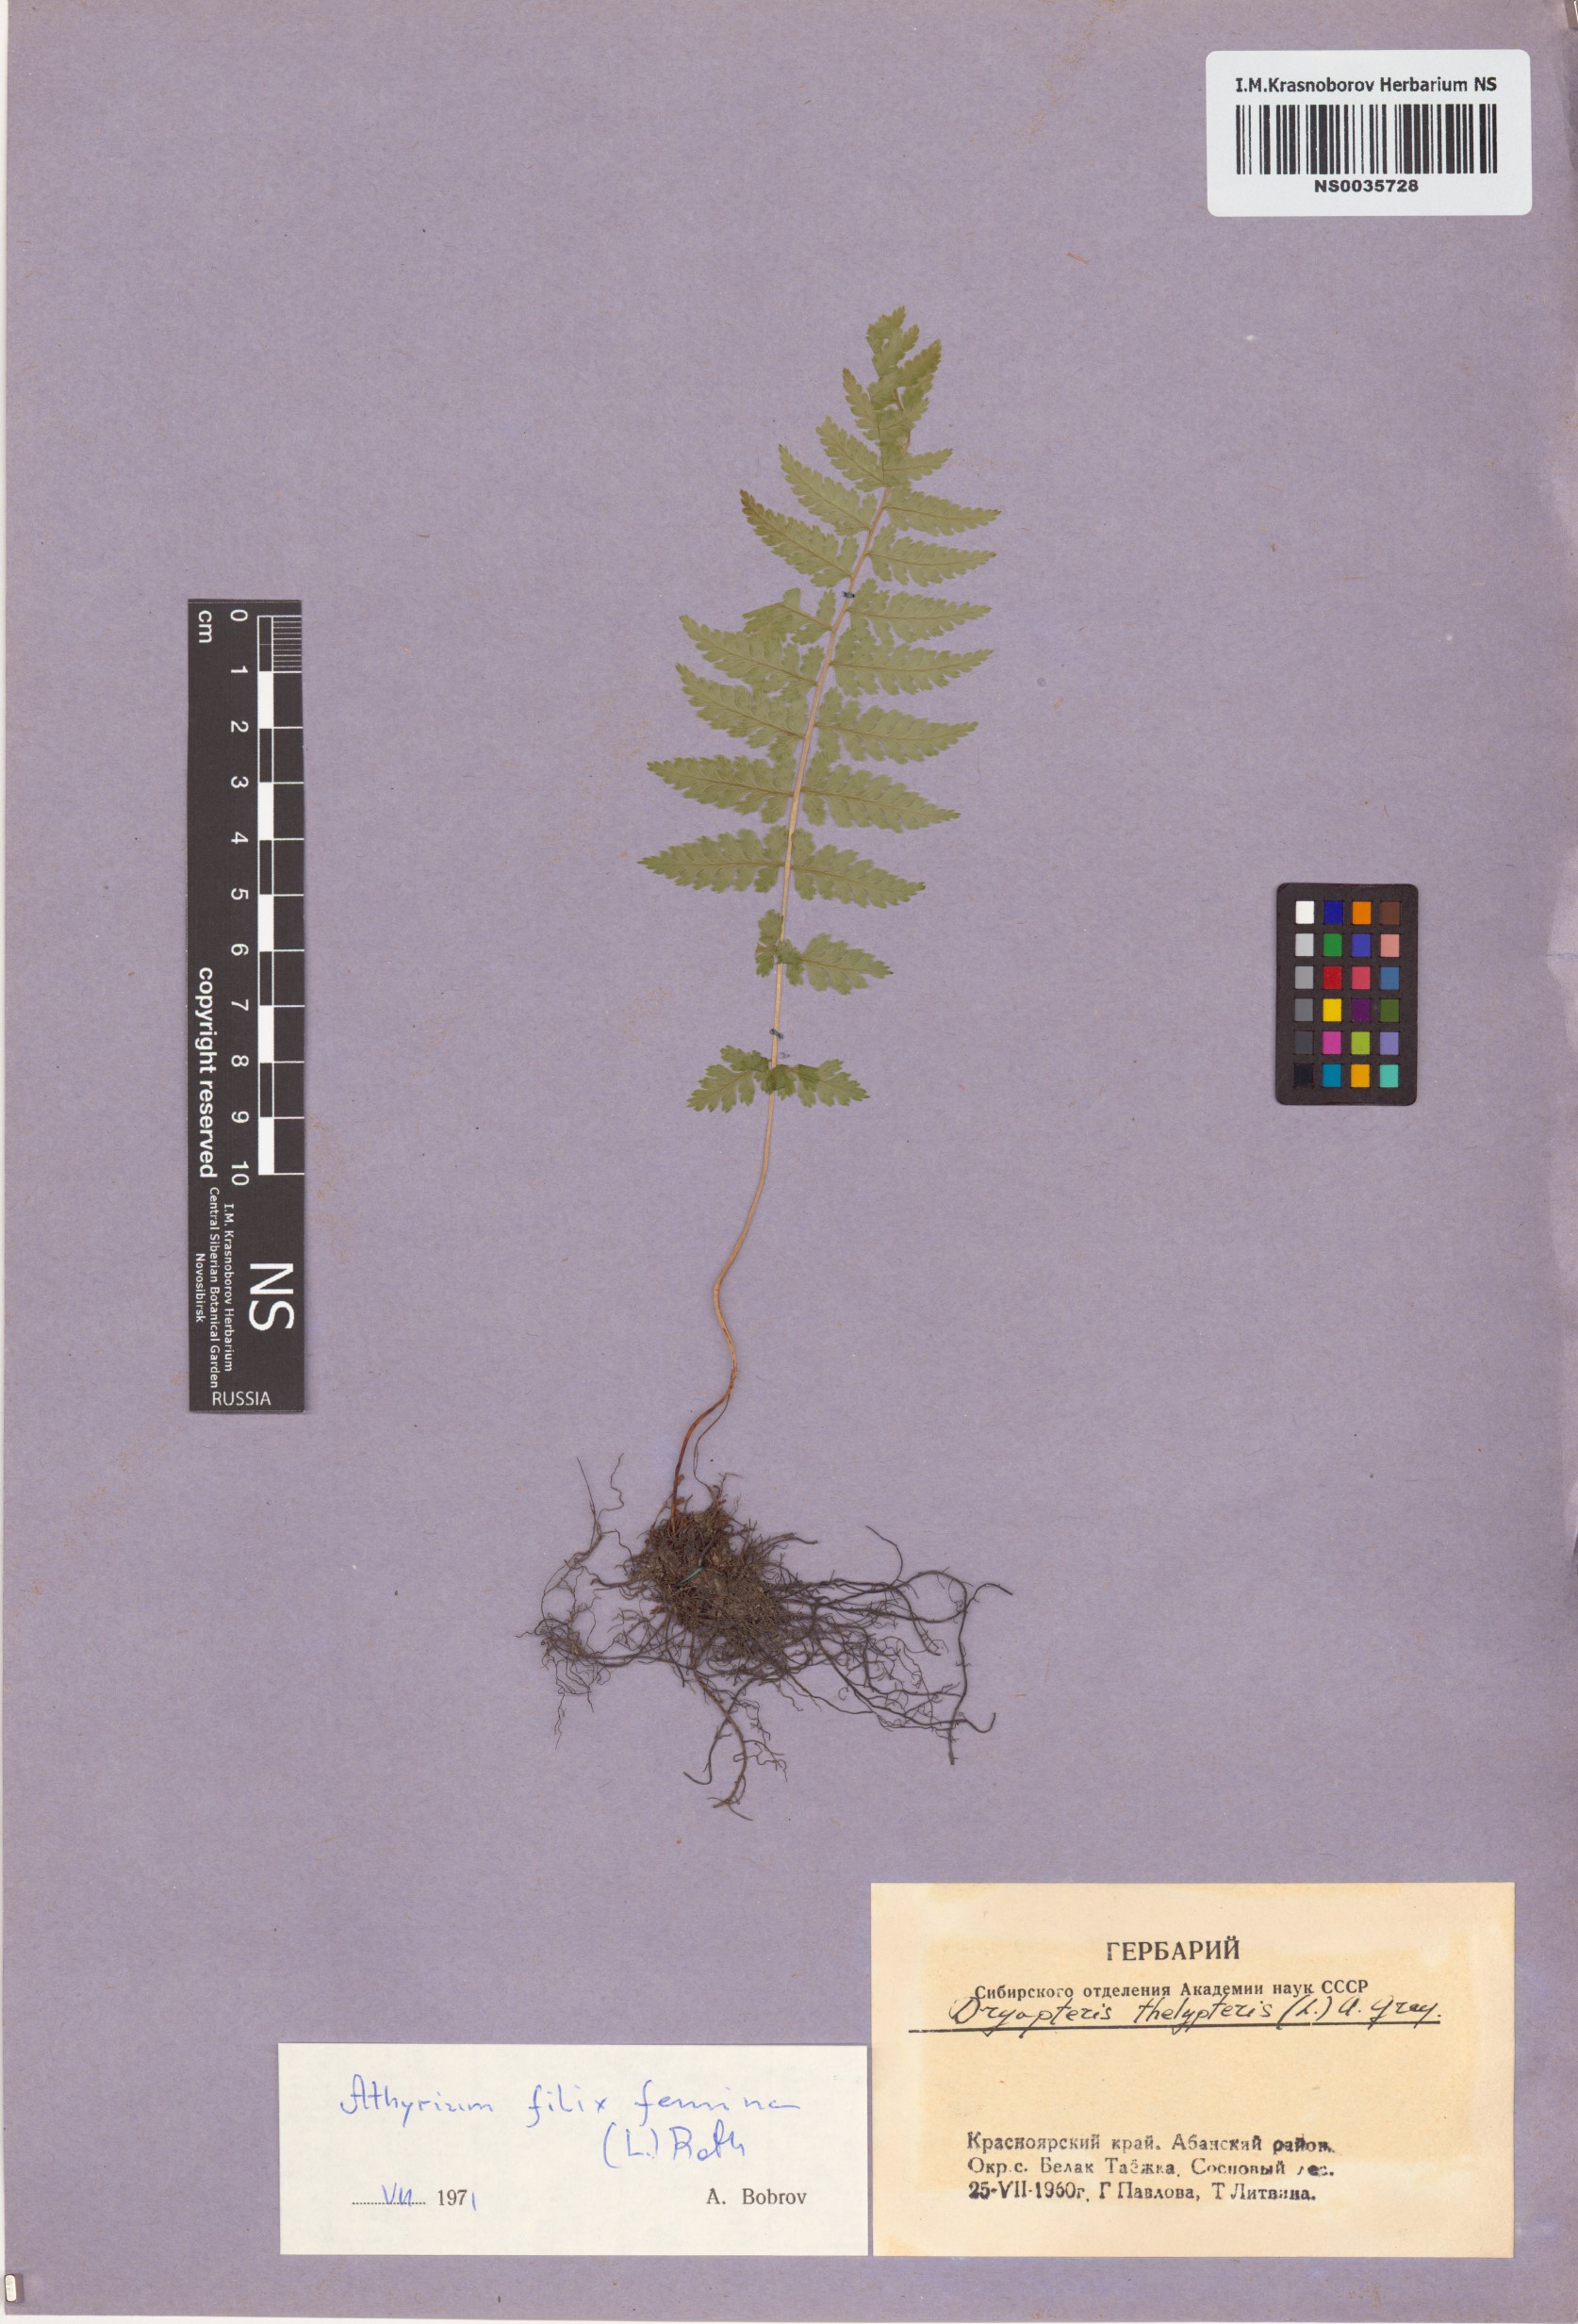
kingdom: Plantae
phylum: Tracheophyta
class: Polypodiopsida
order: Polypodiales
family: Athyriaceae
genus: Athyrium
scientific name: Athyrium filix-femina
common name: Lady fern
